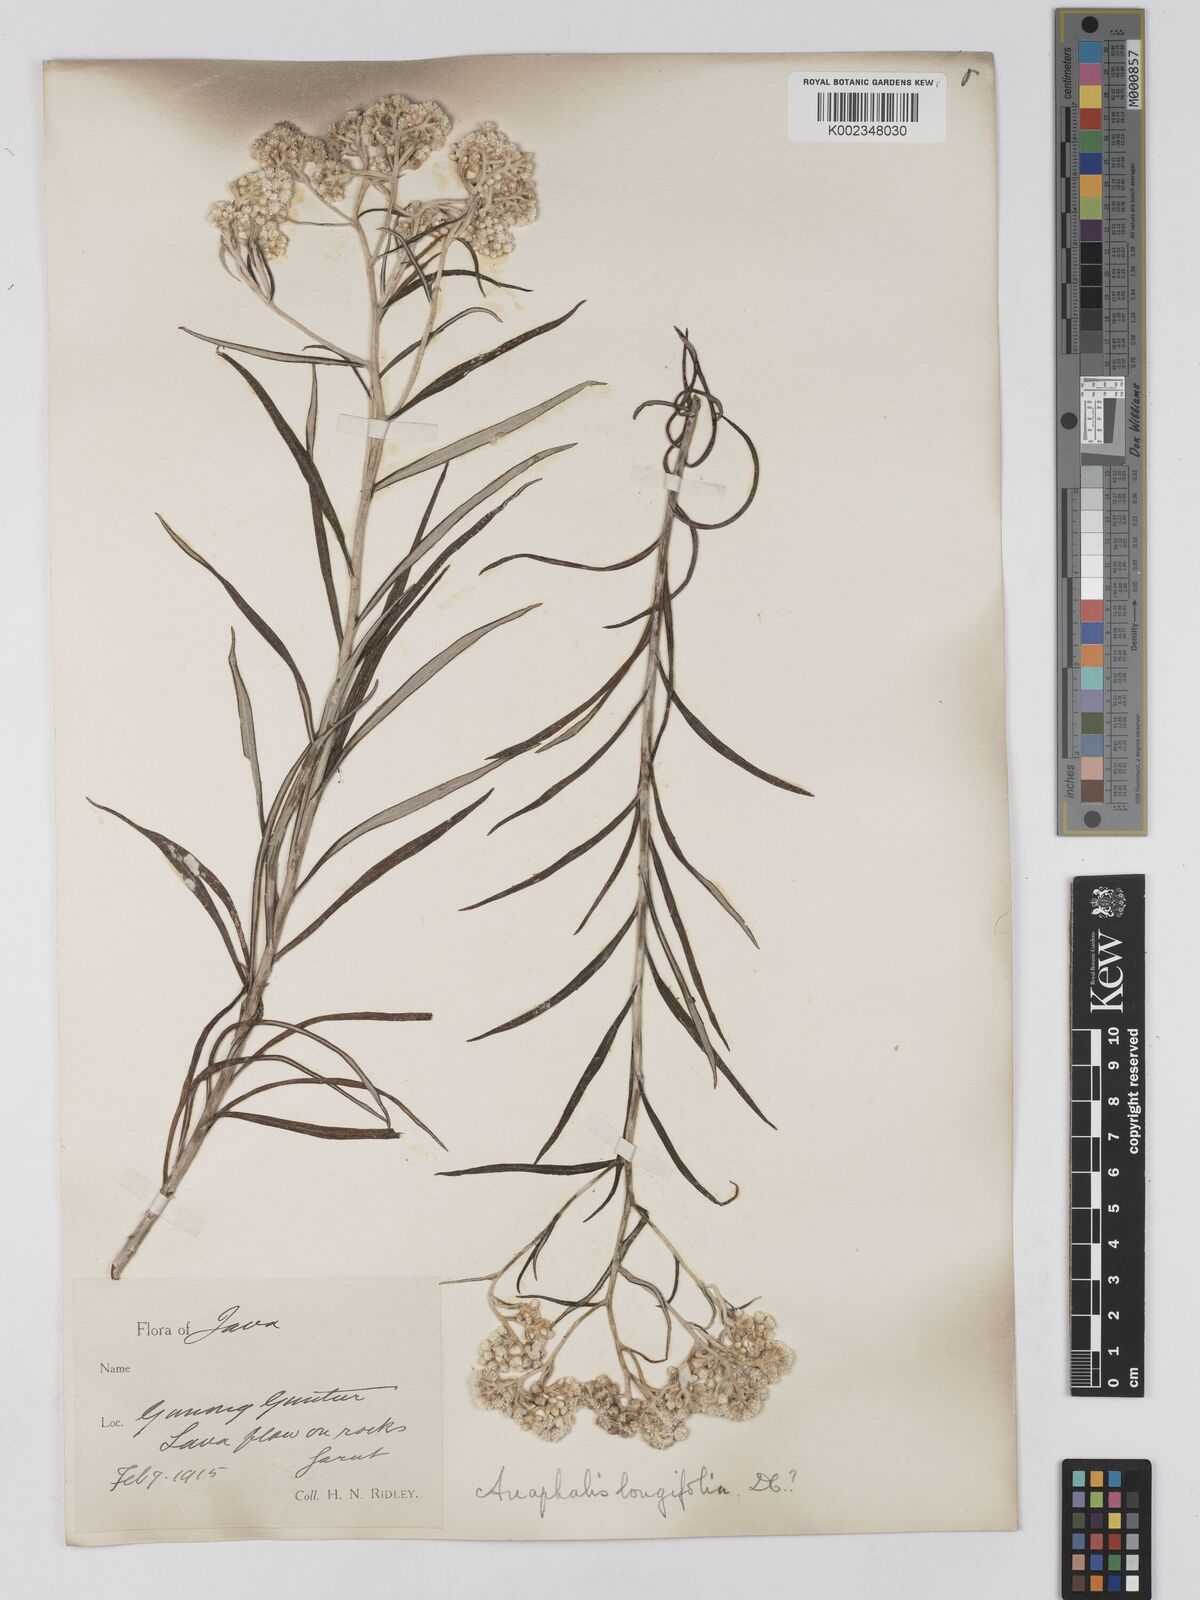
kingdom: Plantae
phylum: Tracheophyta
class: Magnoliopsida
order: Asterales
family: Asteraceae
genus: Anaphalis
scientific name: Anaphalis longifolia
